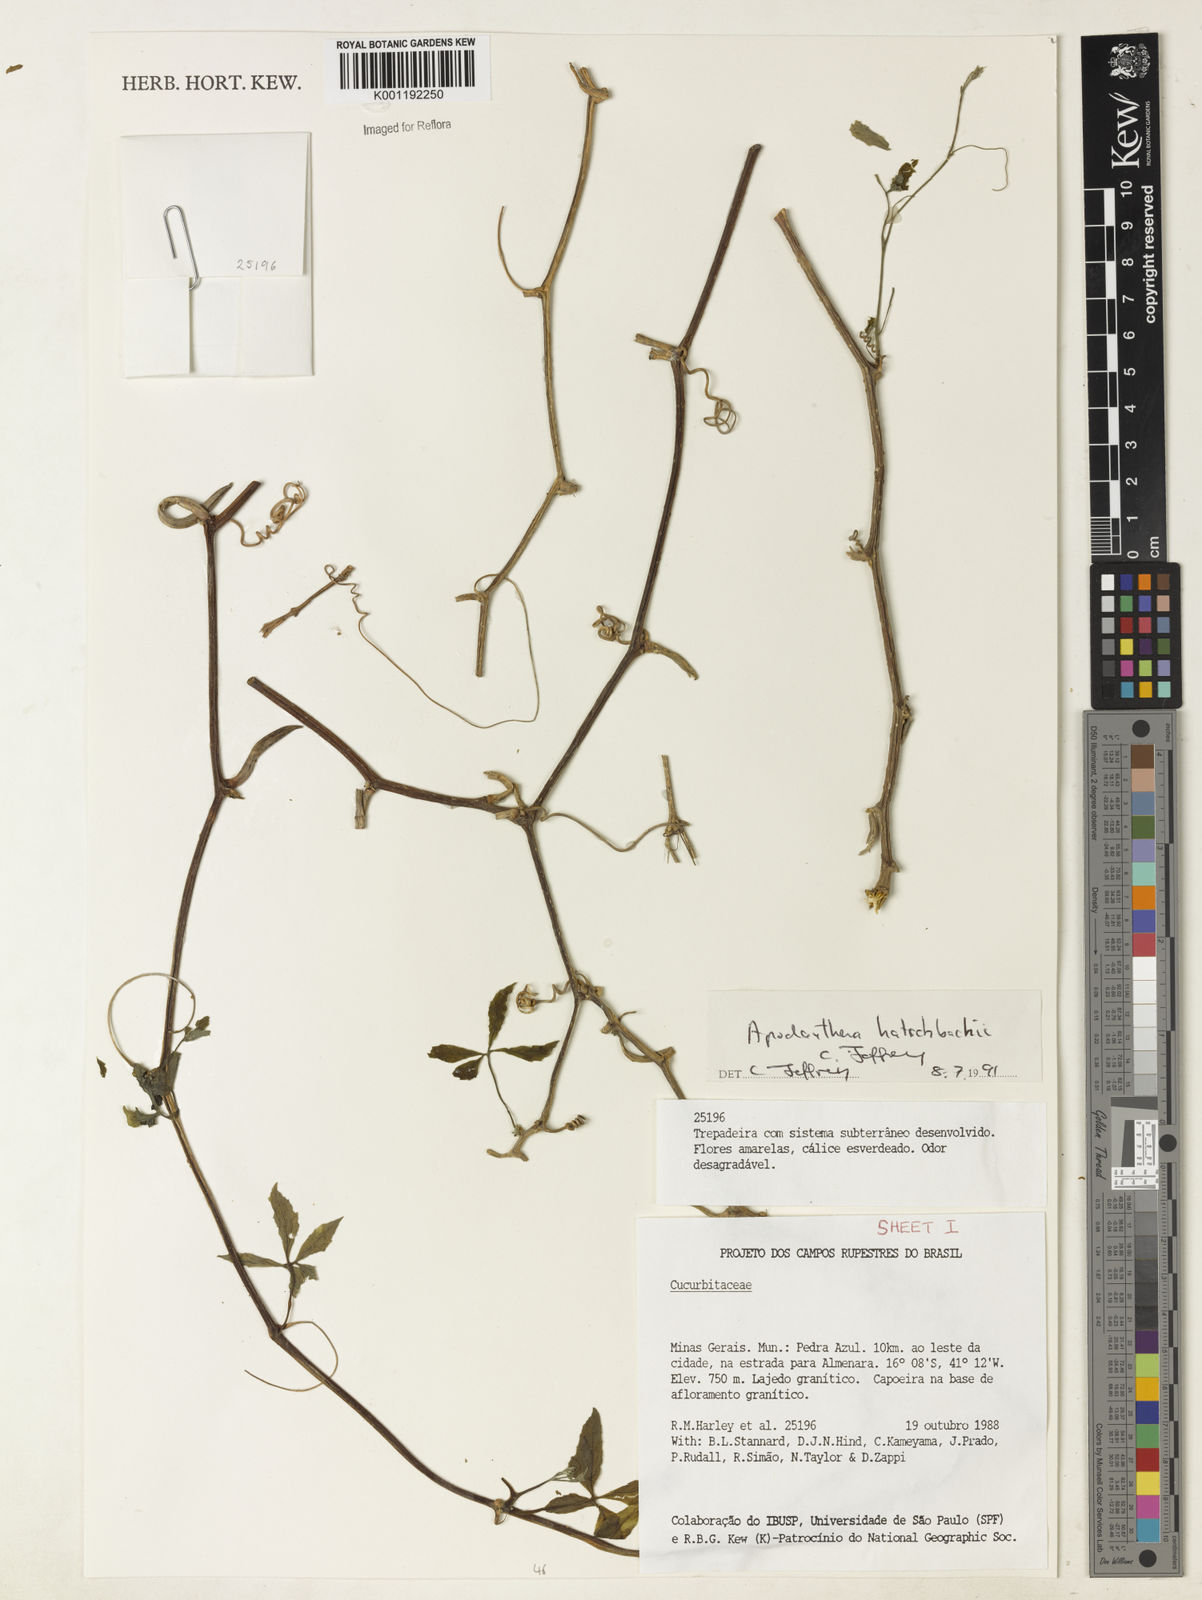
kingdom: Plantae
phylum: Tracheophyta
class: Magnoliopsida
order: Cucurbitales
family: Cucurbitaceae
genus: Apodanthera
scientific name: Apodanthera bradei
